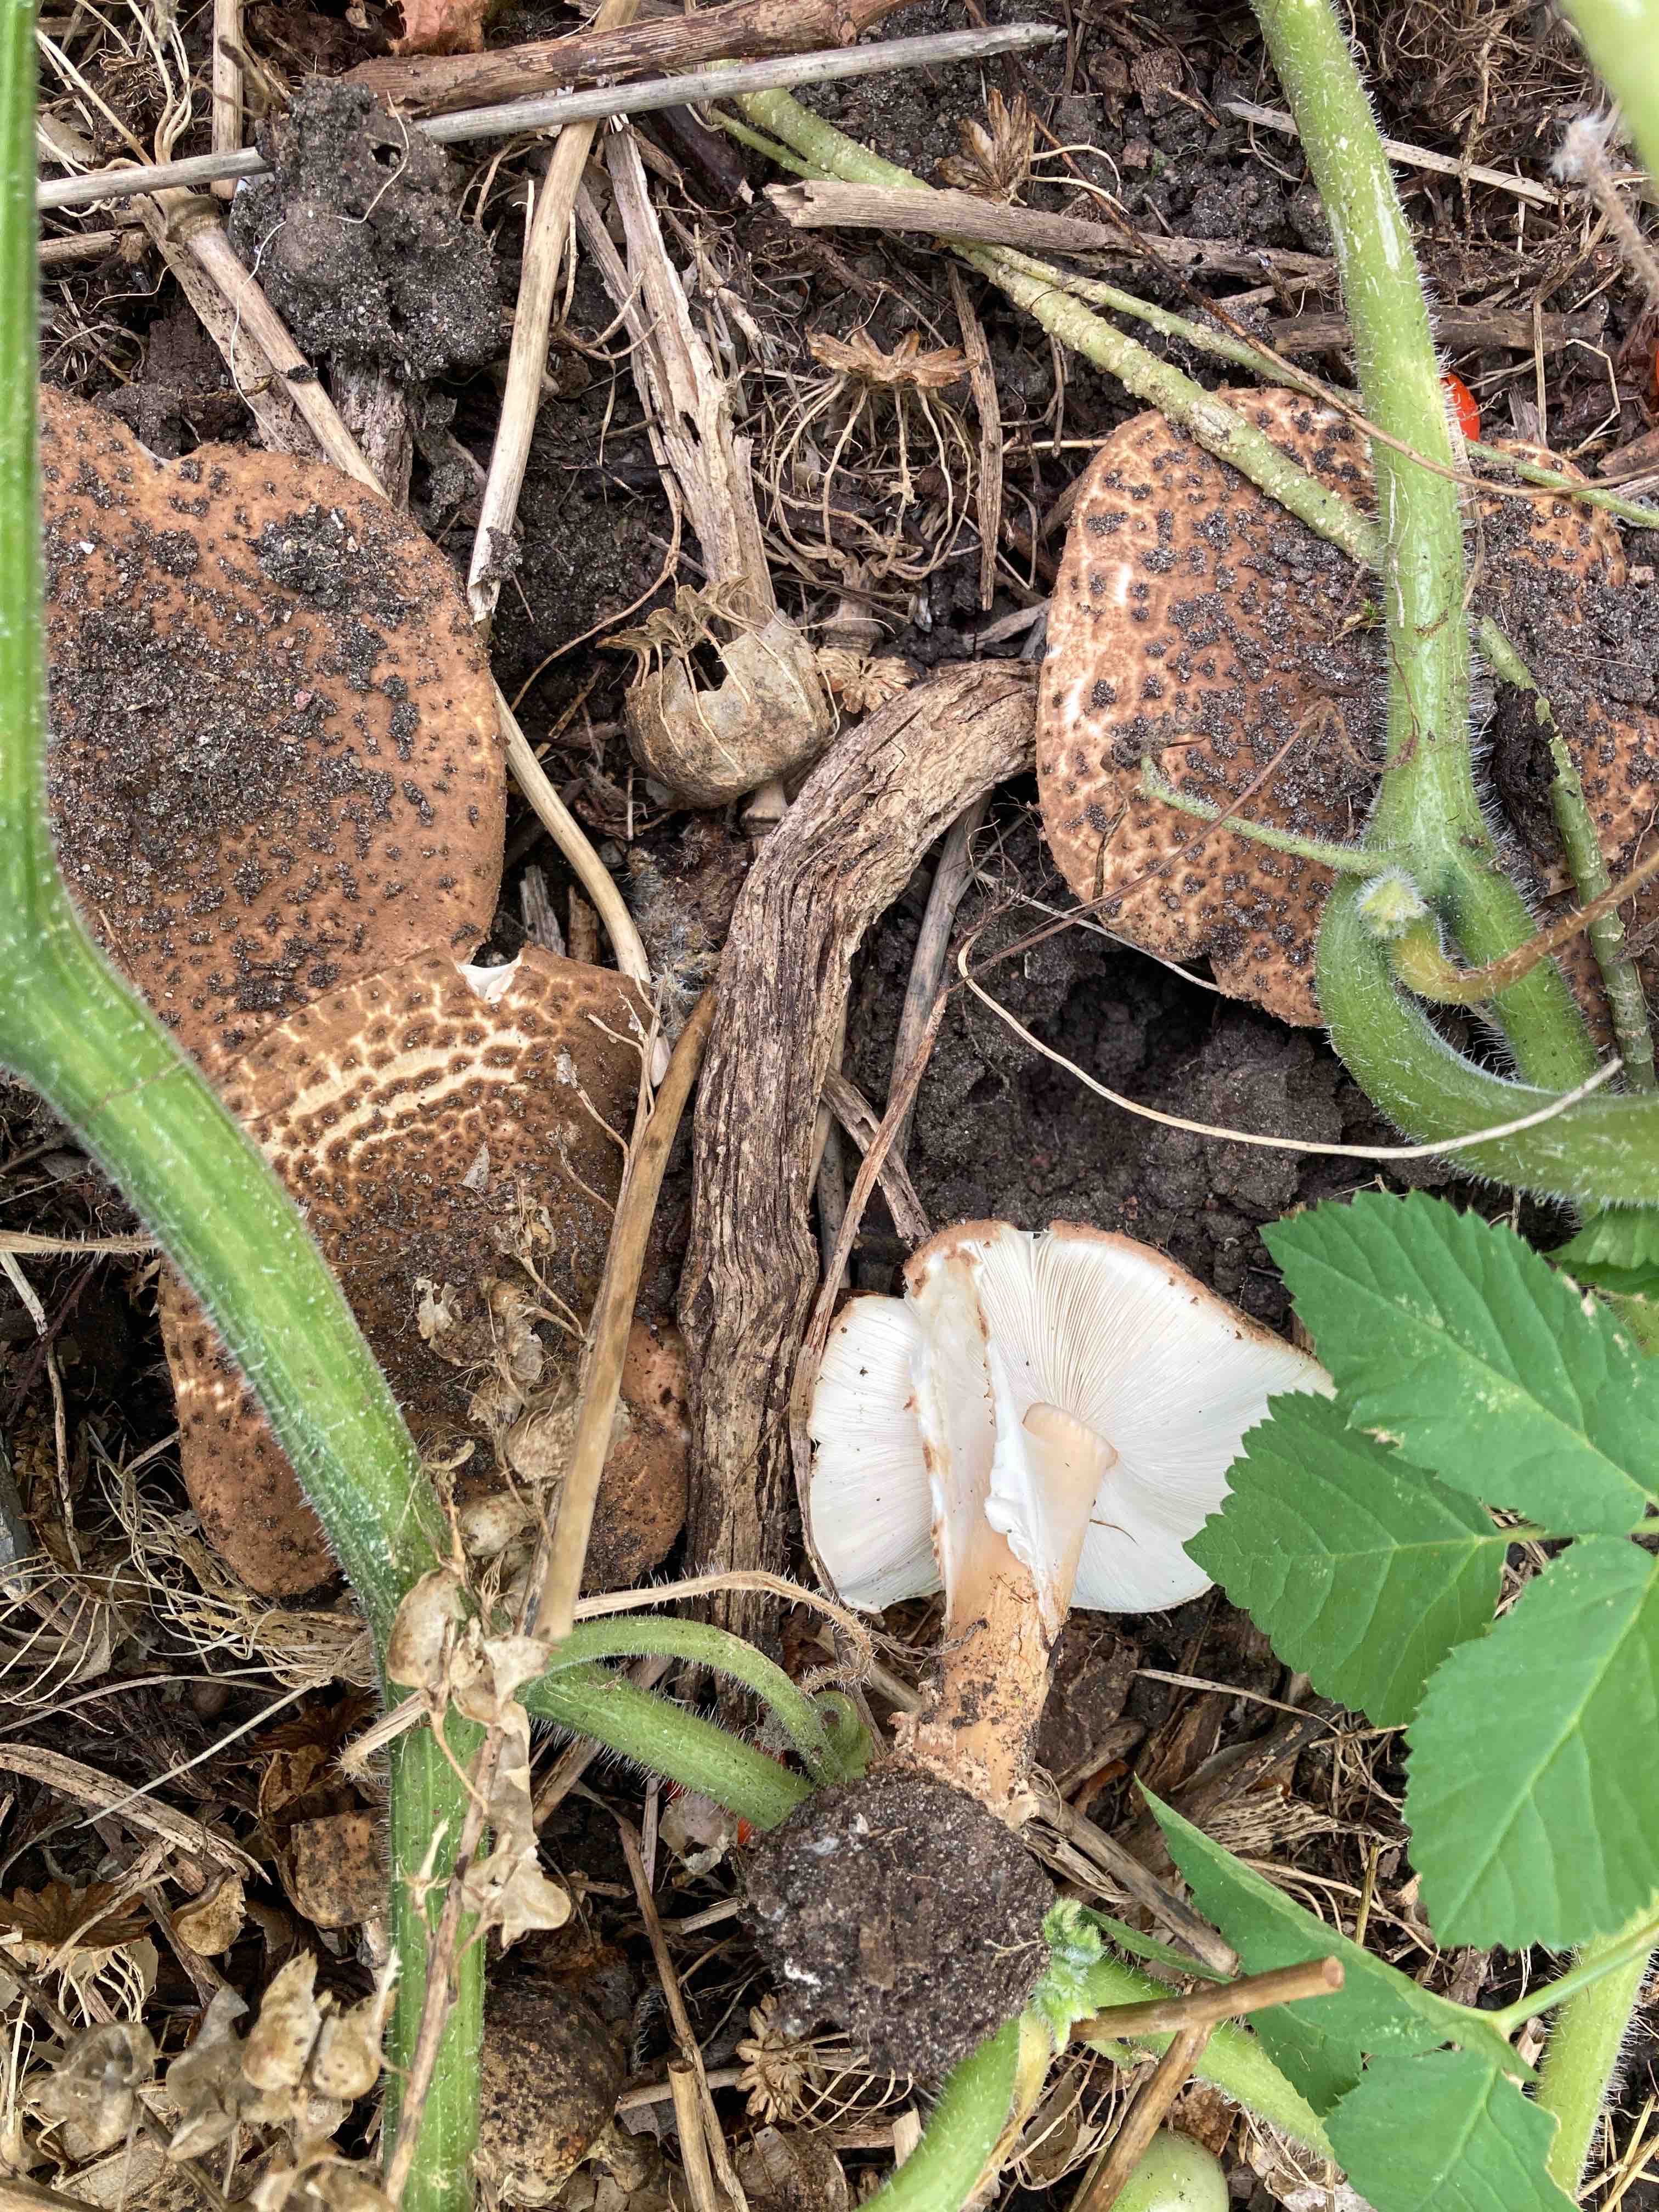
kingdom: Fungi
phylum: Basidiomycota
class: Agaricomycetes
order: Agaricales
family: Agaricaceae
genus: Echinoderma
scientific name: Echinoderma asperum
